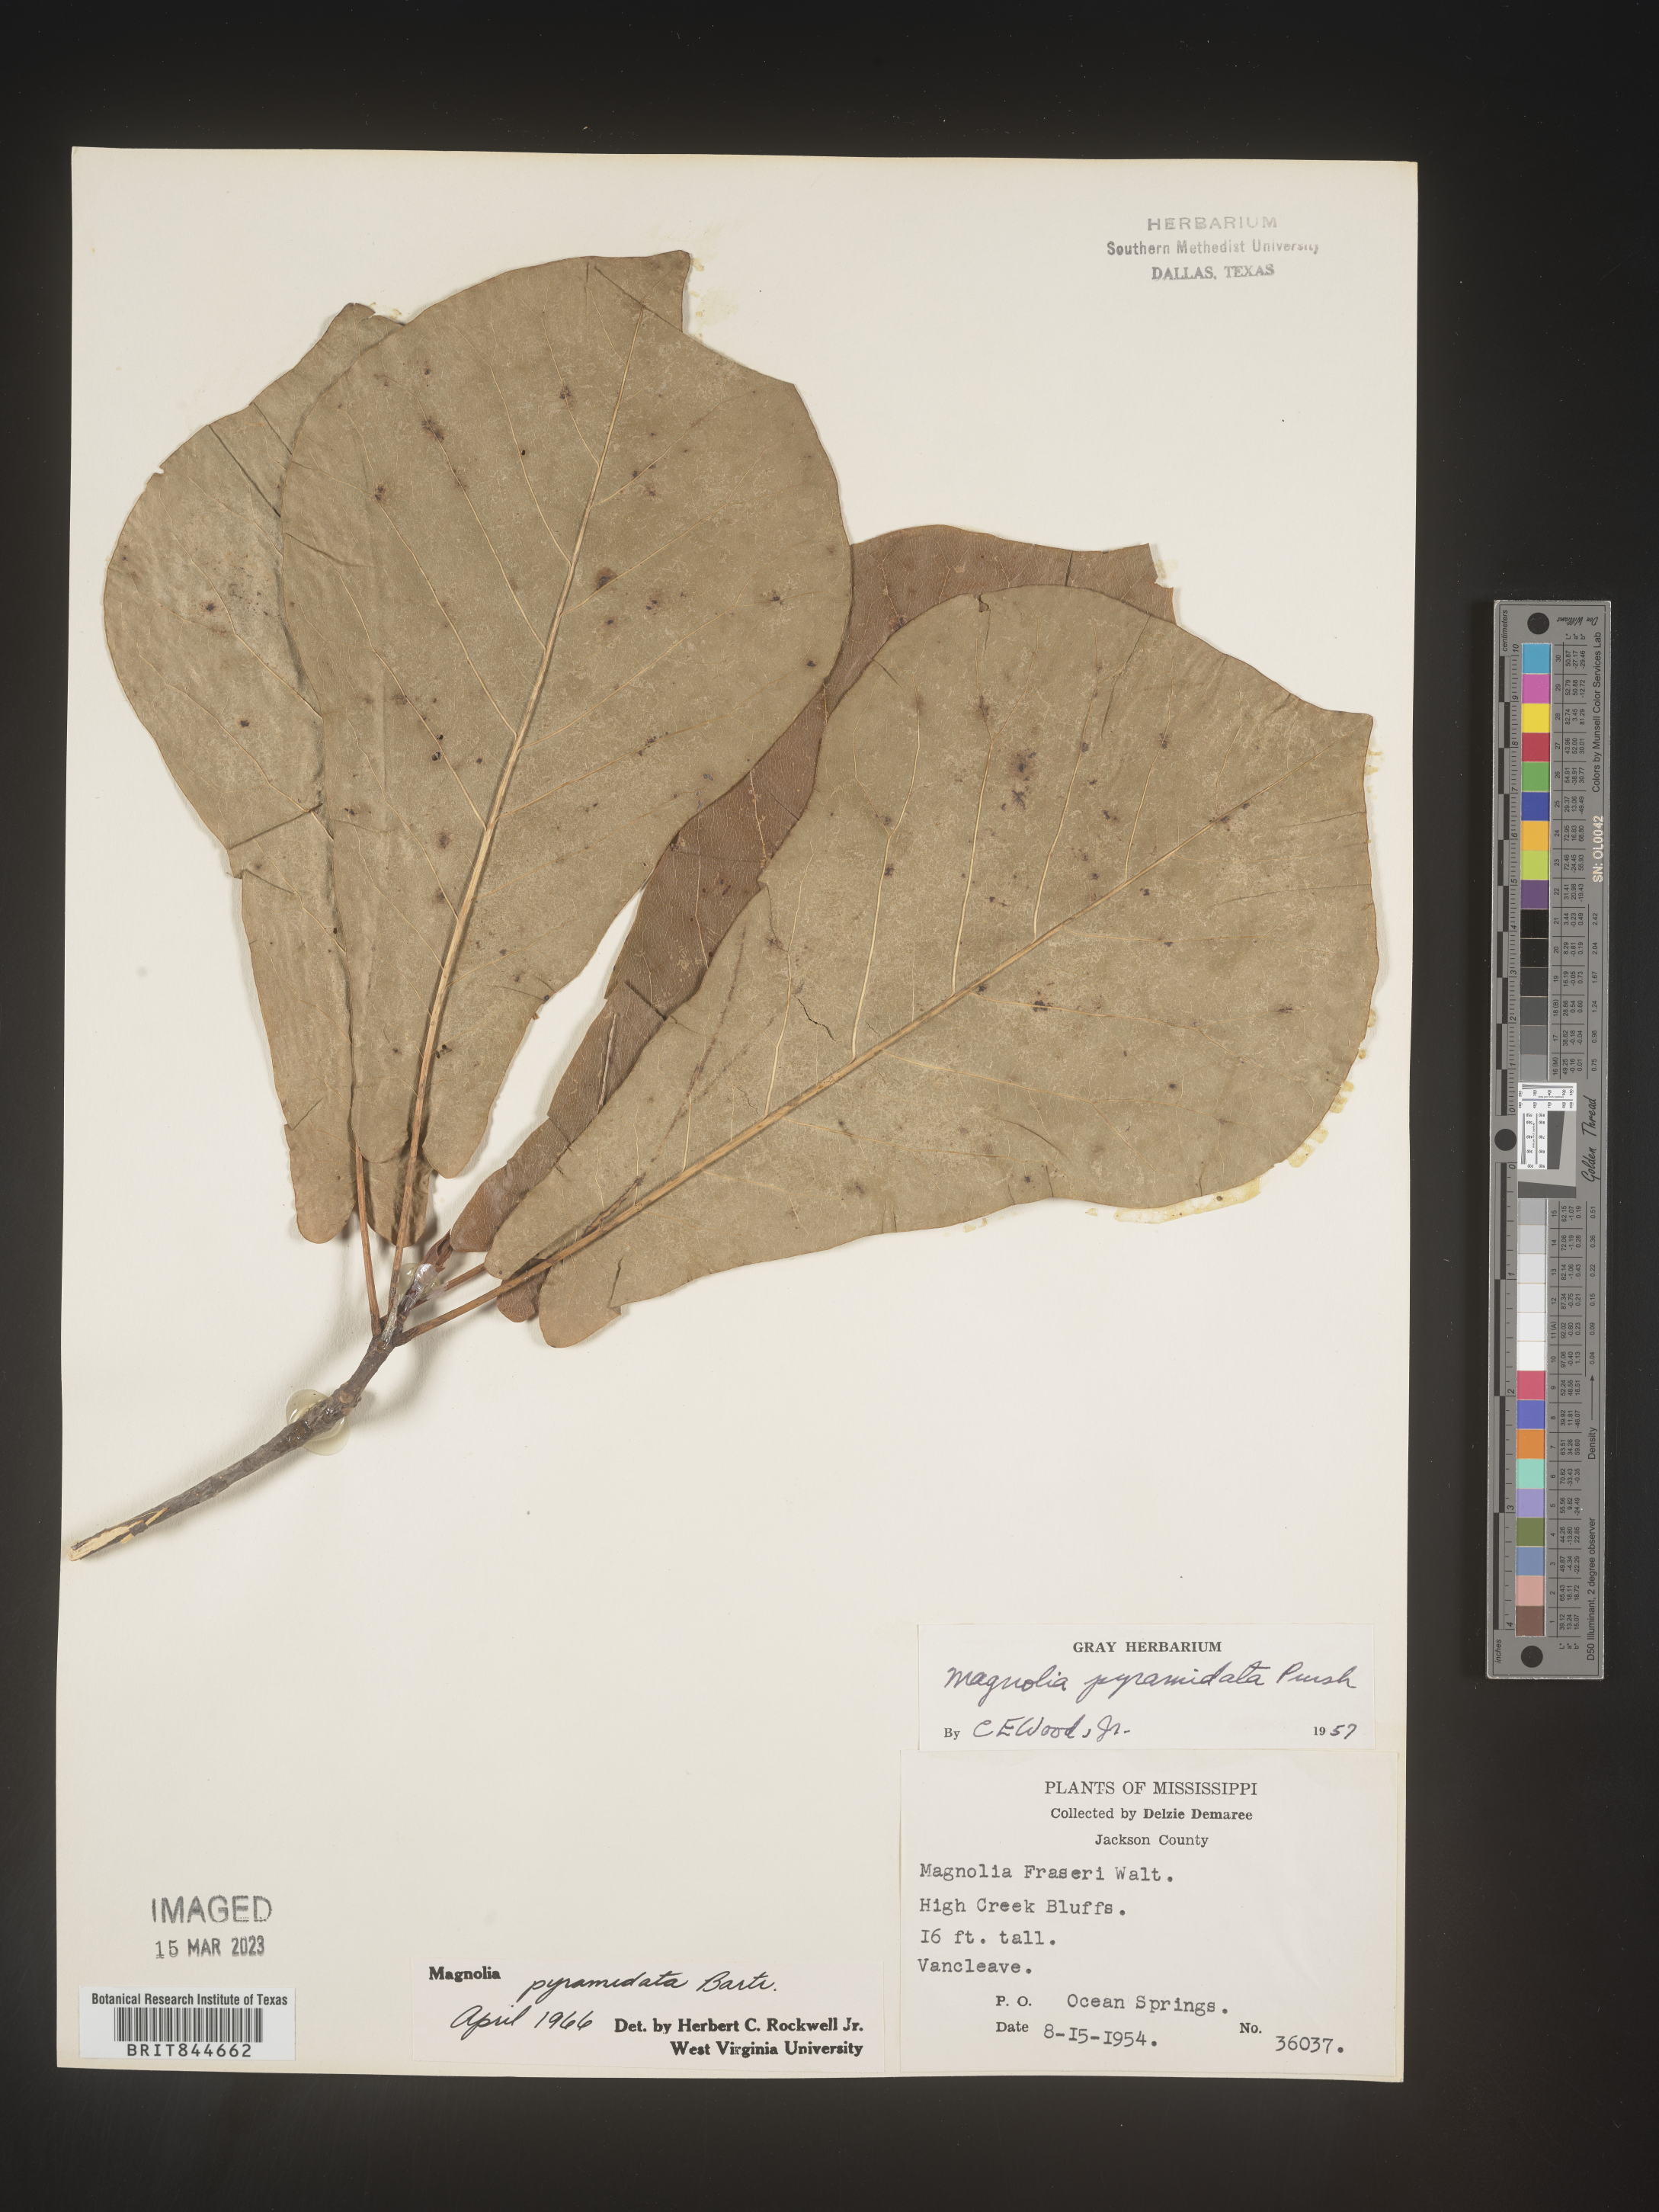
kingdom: Plantae
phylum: Tracheophyta
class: Magnoliopsida
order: Magnoliales
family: Magnoliaceae
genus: Magnolia
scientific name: Magnolia fraseri
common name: Fraser's magnolia
